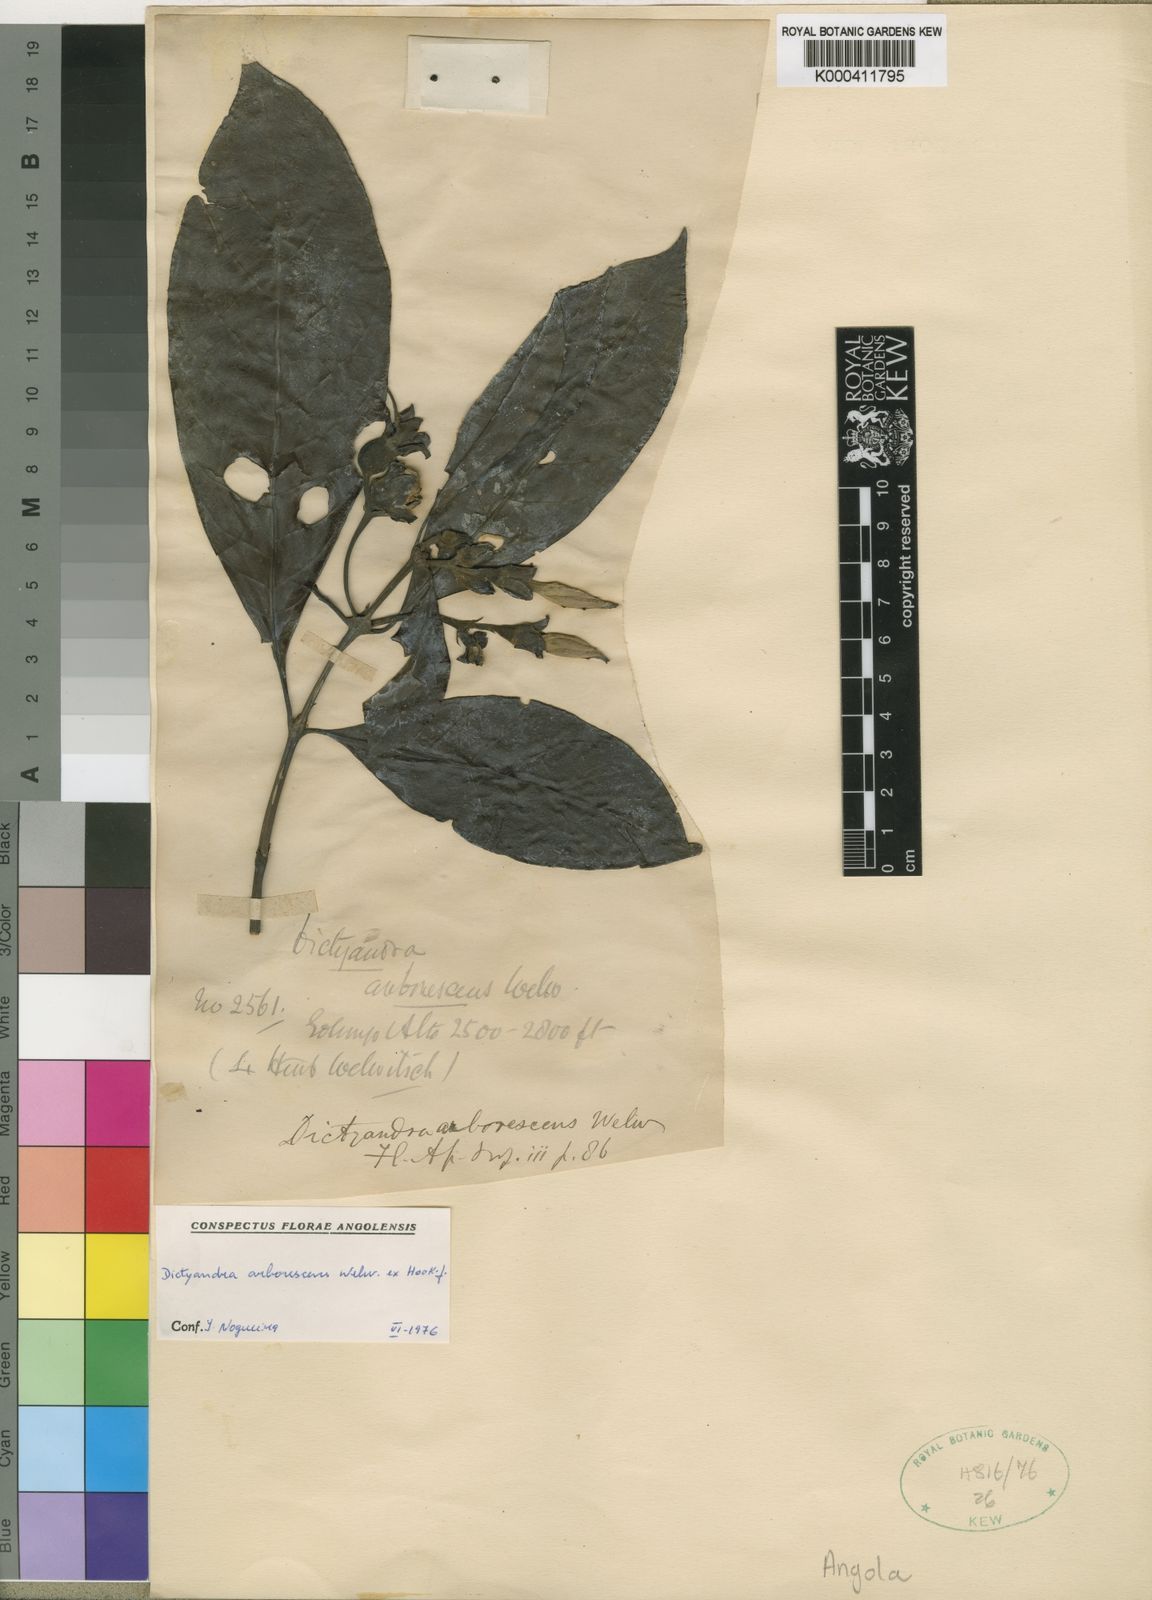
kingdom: Plantae
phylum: Tracheophyta
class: Magnoliopsida
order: Gentianales
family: Rubiaceae
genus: Leptactina
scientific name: Leptactina arborescens
